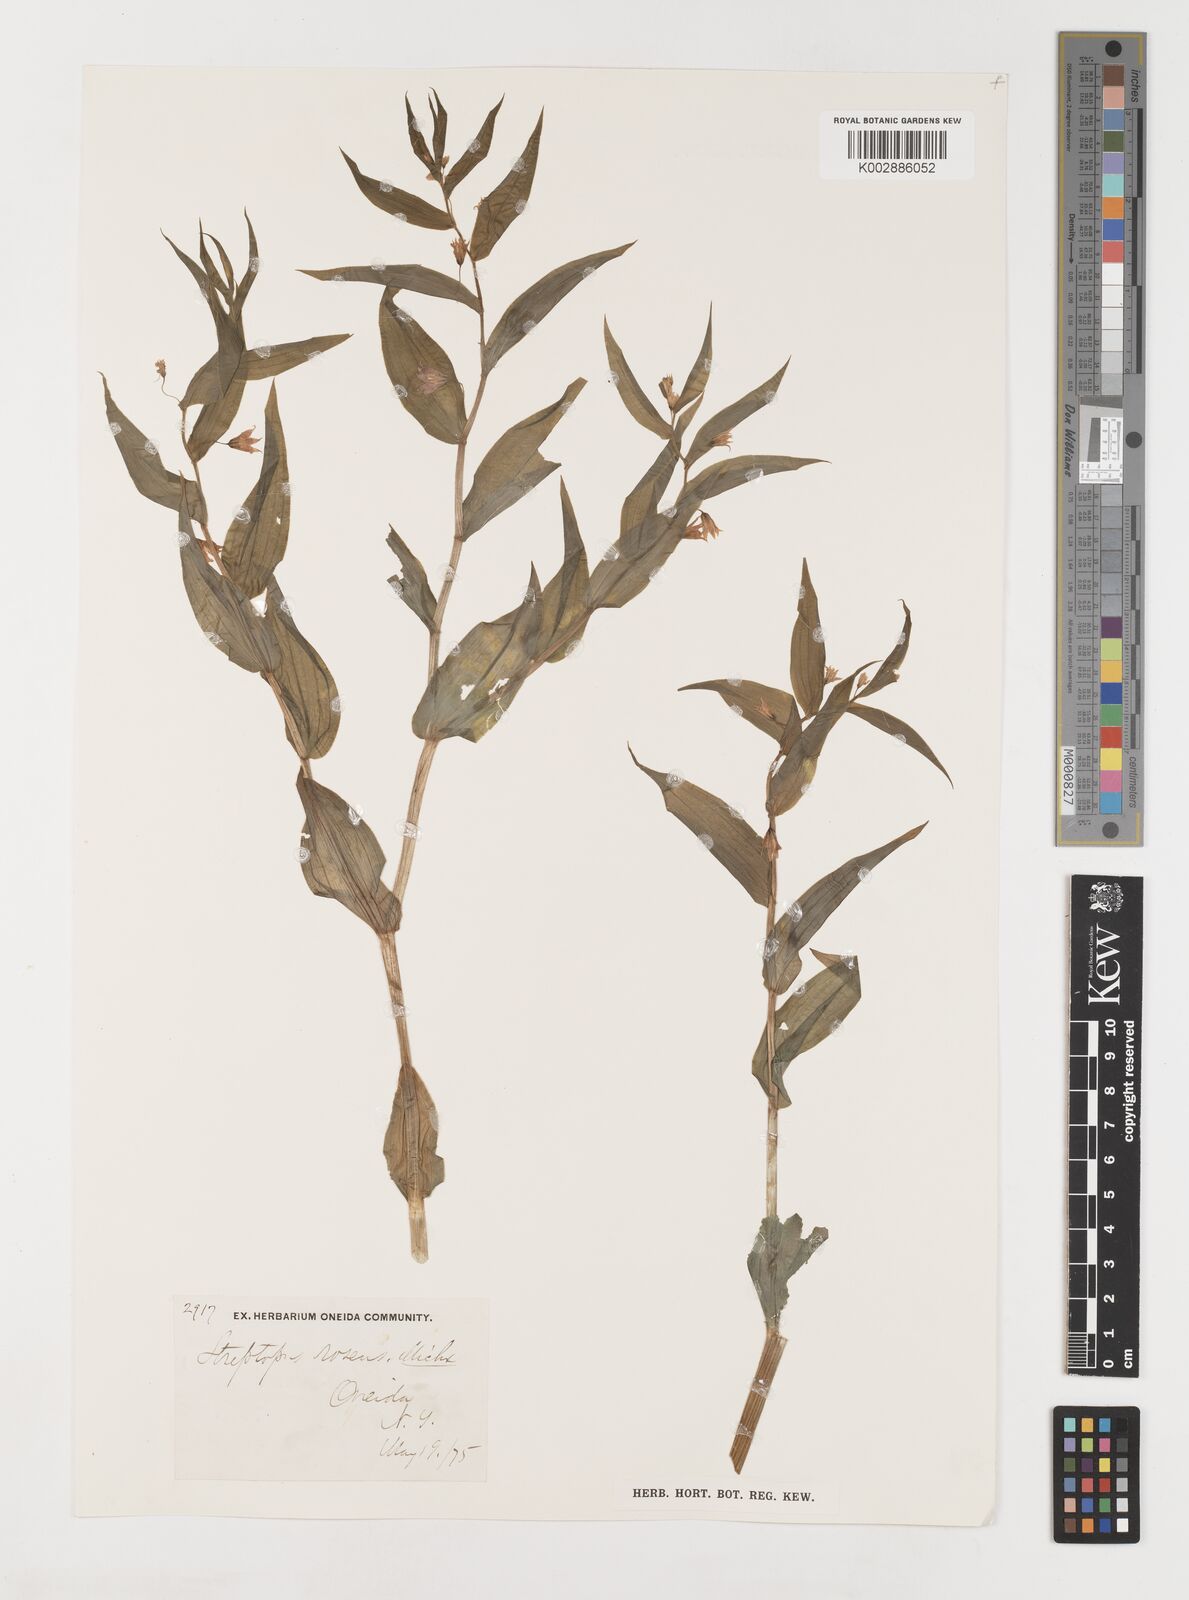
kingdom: Plantae
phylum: Tracheophyta
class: Liliopsida
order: Liliales
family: Liliaceae
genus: Streptopus
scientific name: Streptopus lanceolatus
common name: Rose mandarin
